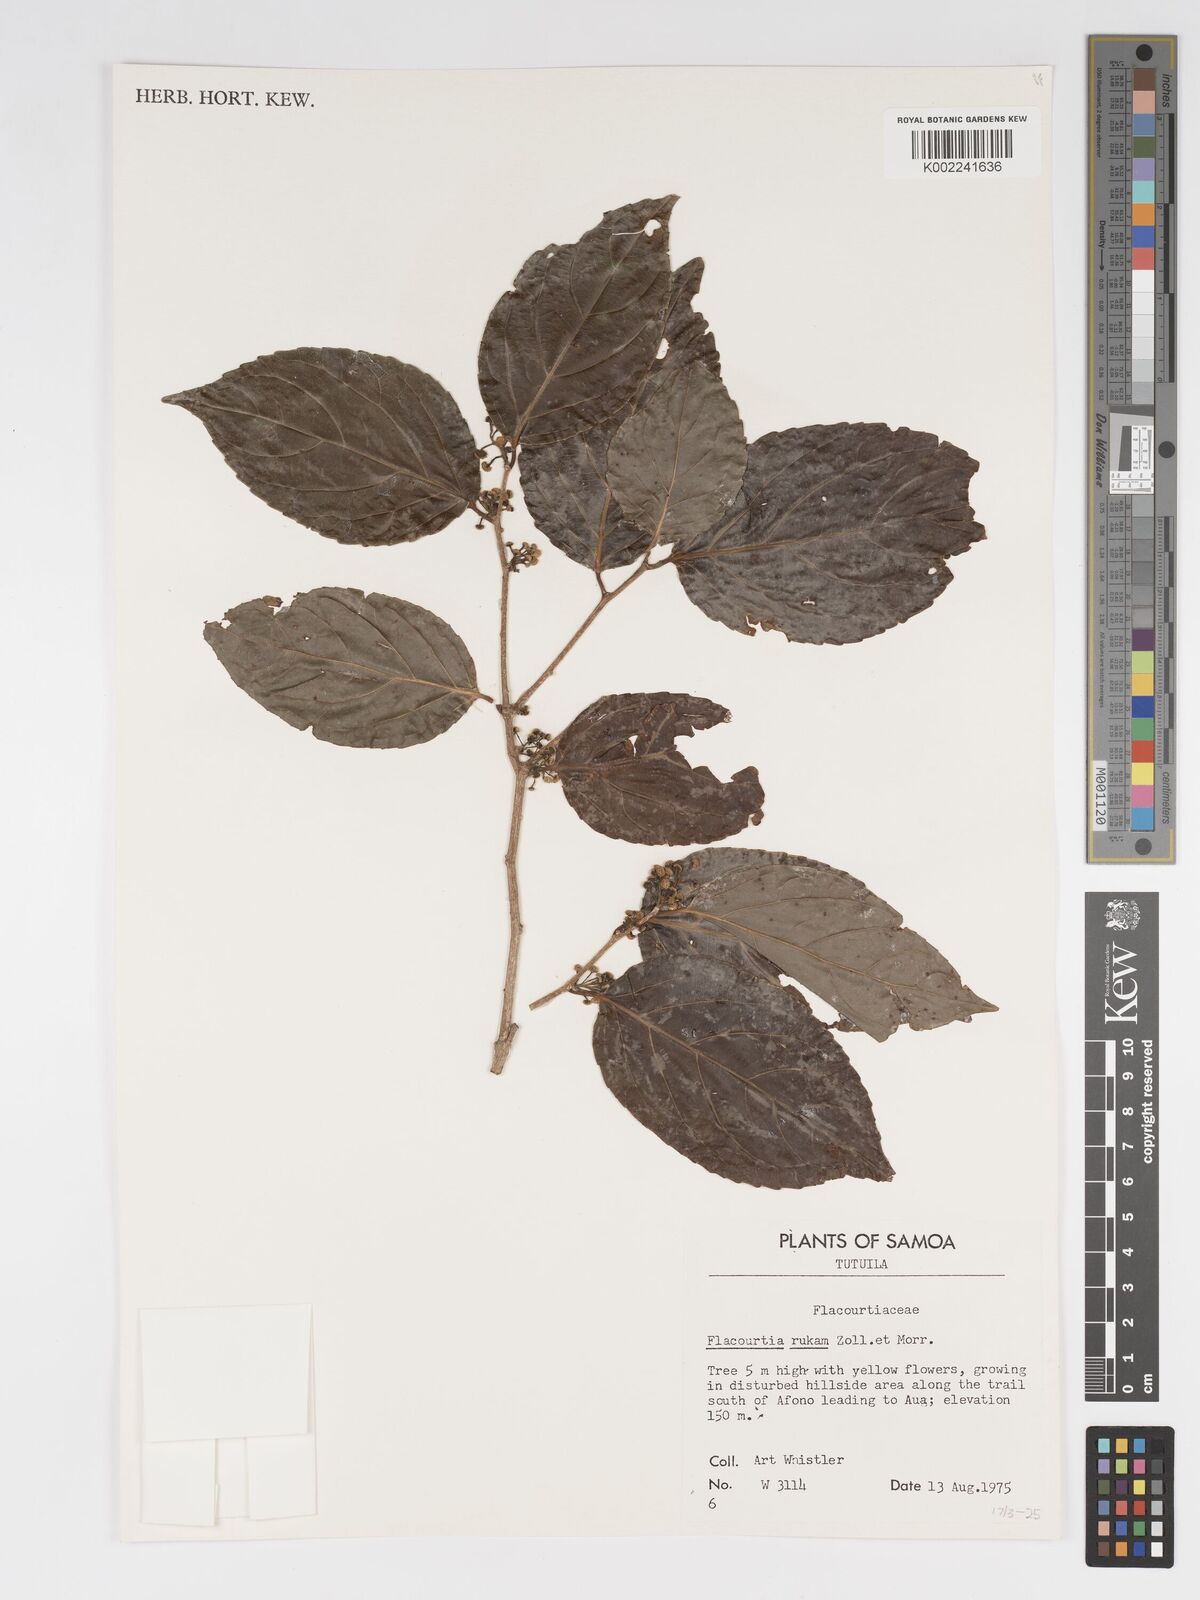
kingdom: Plantae
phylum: Tracheophyta
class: Magnoliopsida
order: Malpighiales
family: Salicaceae
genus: Flacourtia
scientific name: Flacourtia rukam
